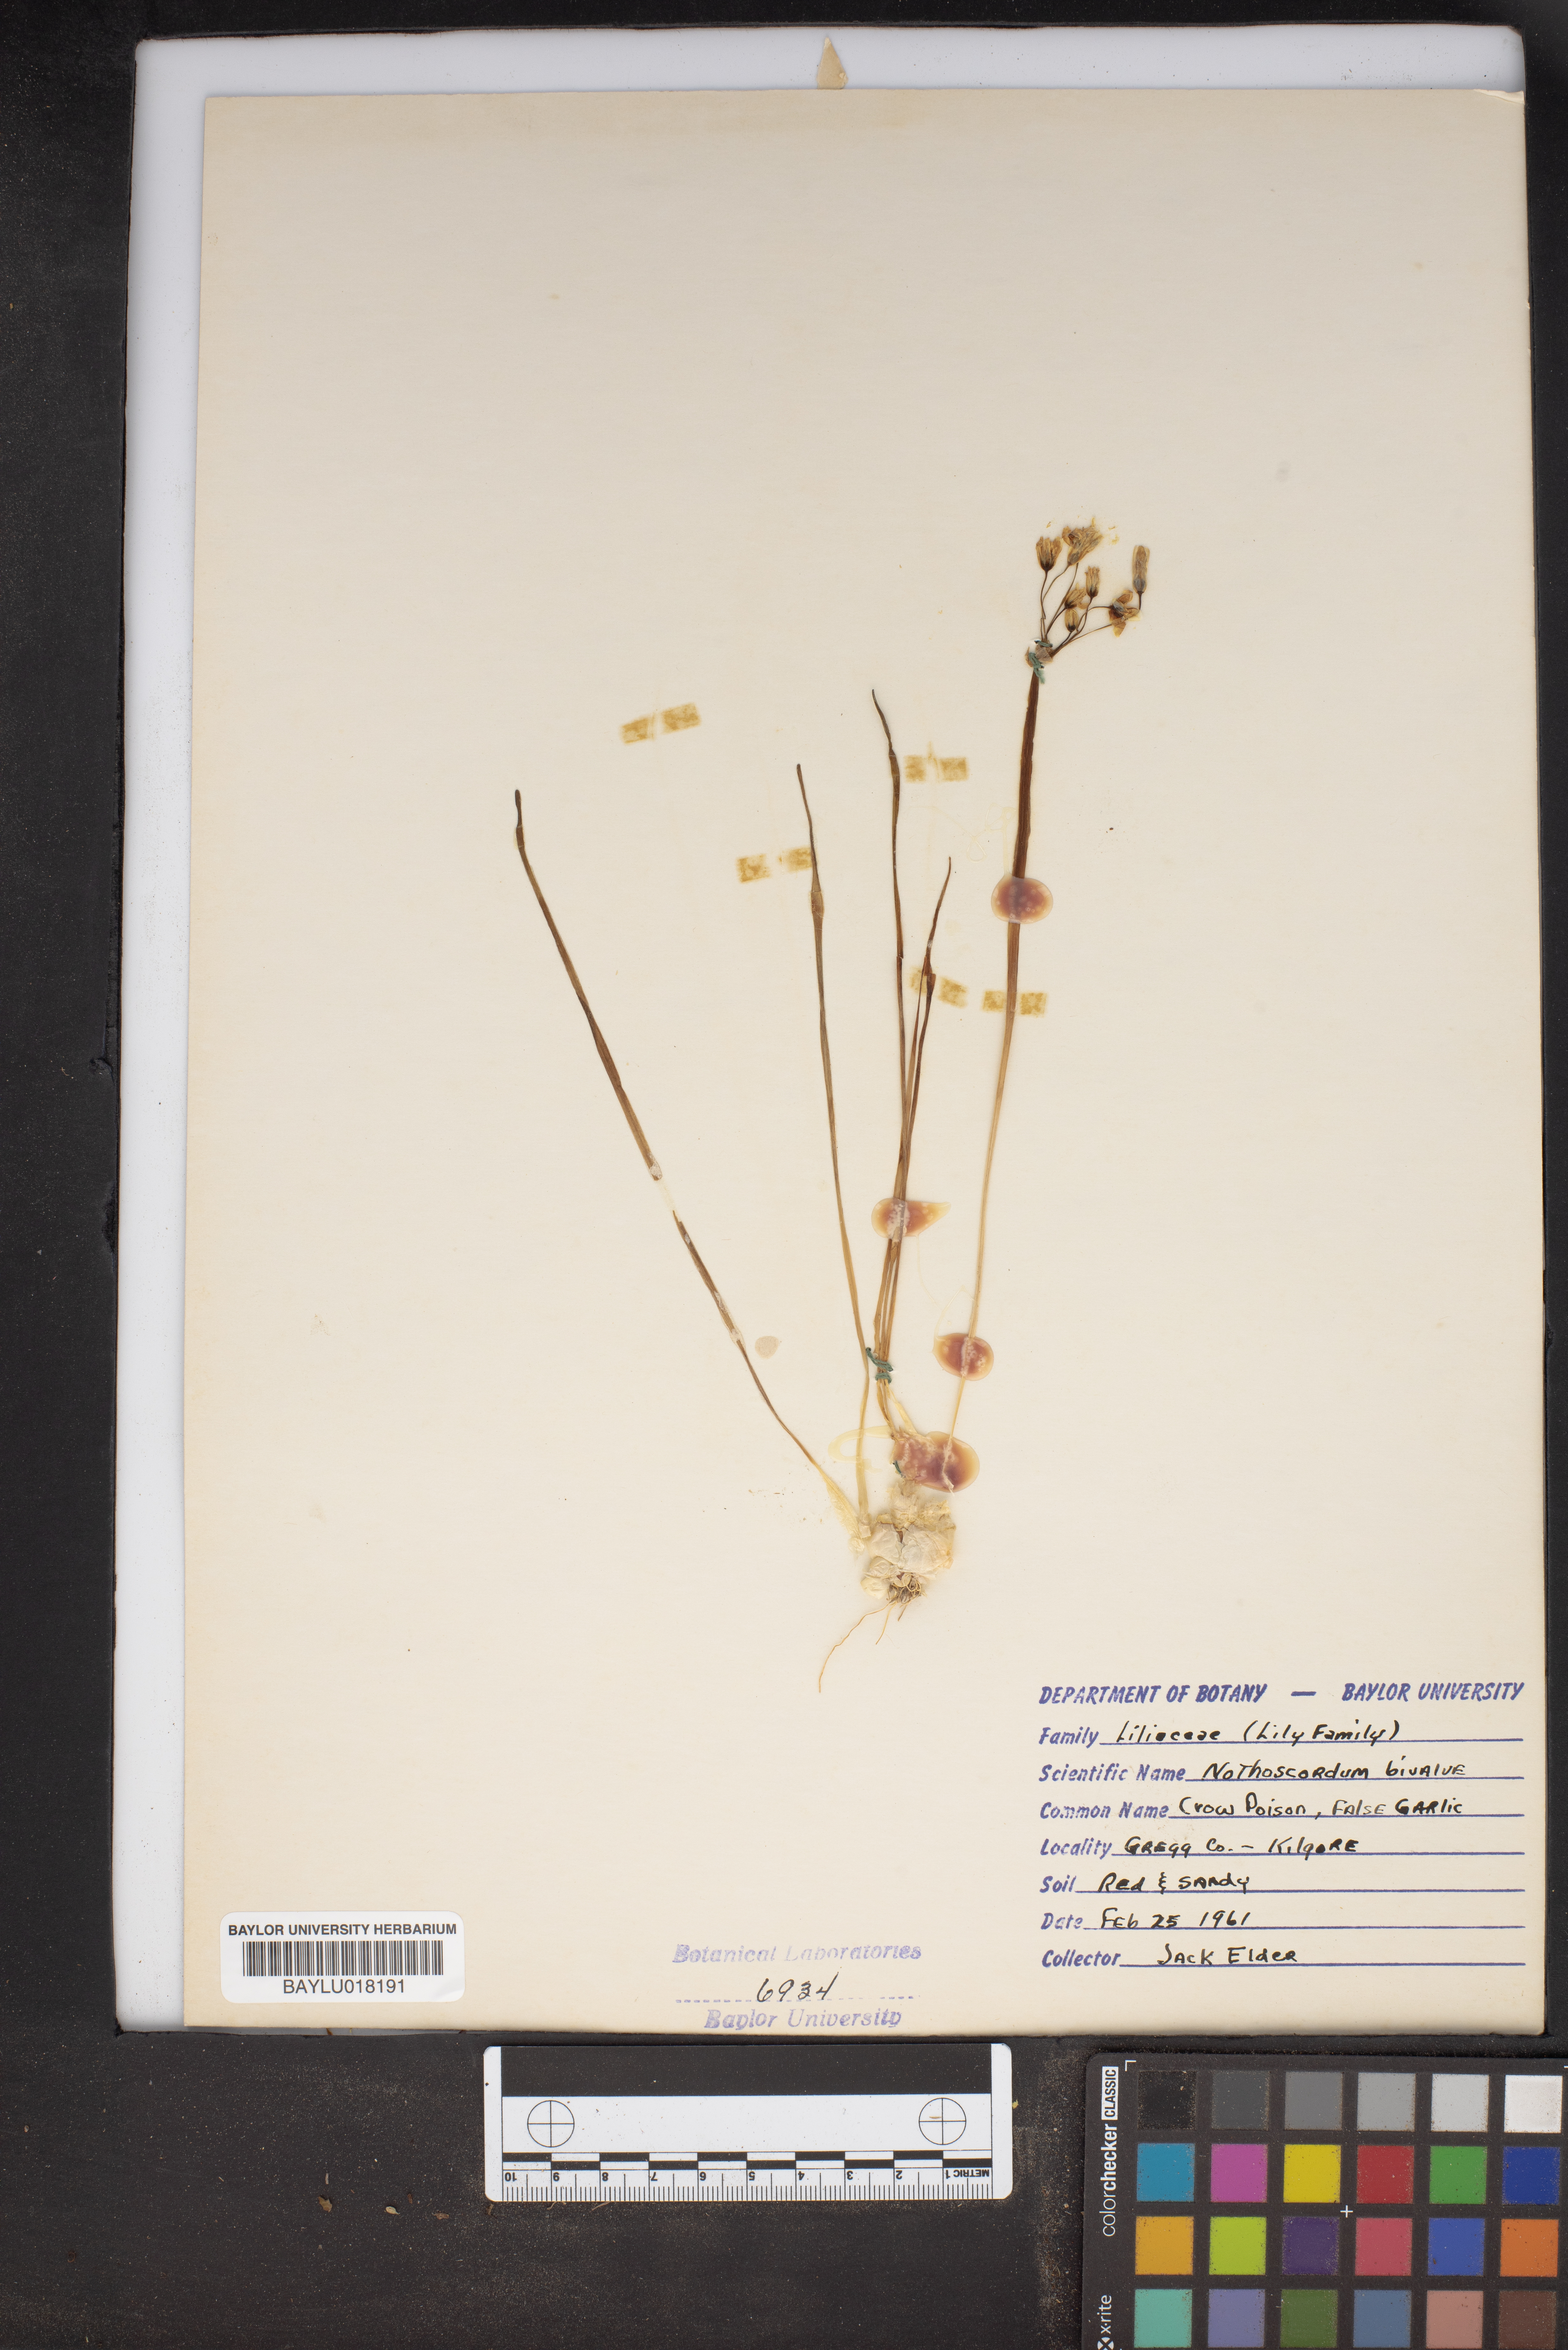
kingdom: Plantae
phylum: Tracheophyta
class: Liliopsida
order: Asparagales
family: Amaryllidaceae
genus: Nothoscordum
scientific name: Nothoscordum bivalve
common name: Crow-poison
